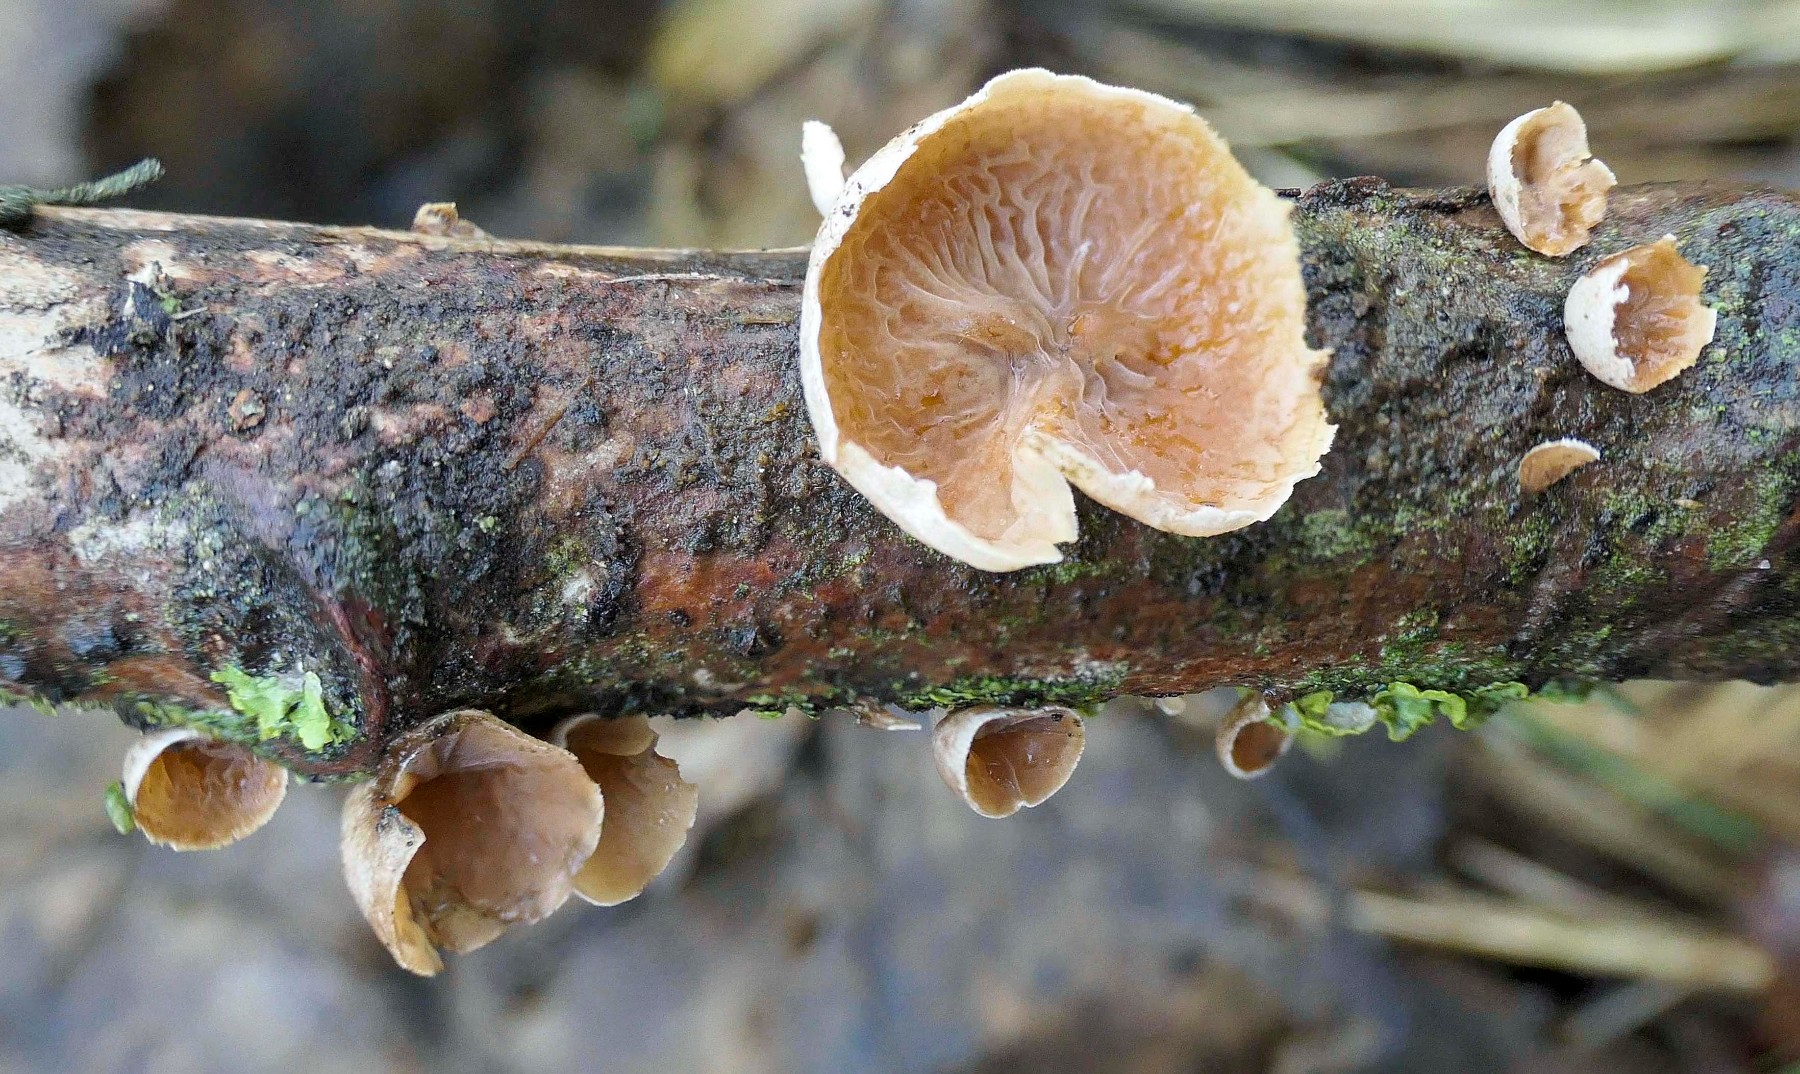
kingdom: Fungi
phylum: Basidiomycota
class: Agaricomycetes
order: Agaricales
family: Schizophyllaceae
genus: Schizophyllum
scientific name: Schizophyllum amplum
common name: poppel-hængeøre
